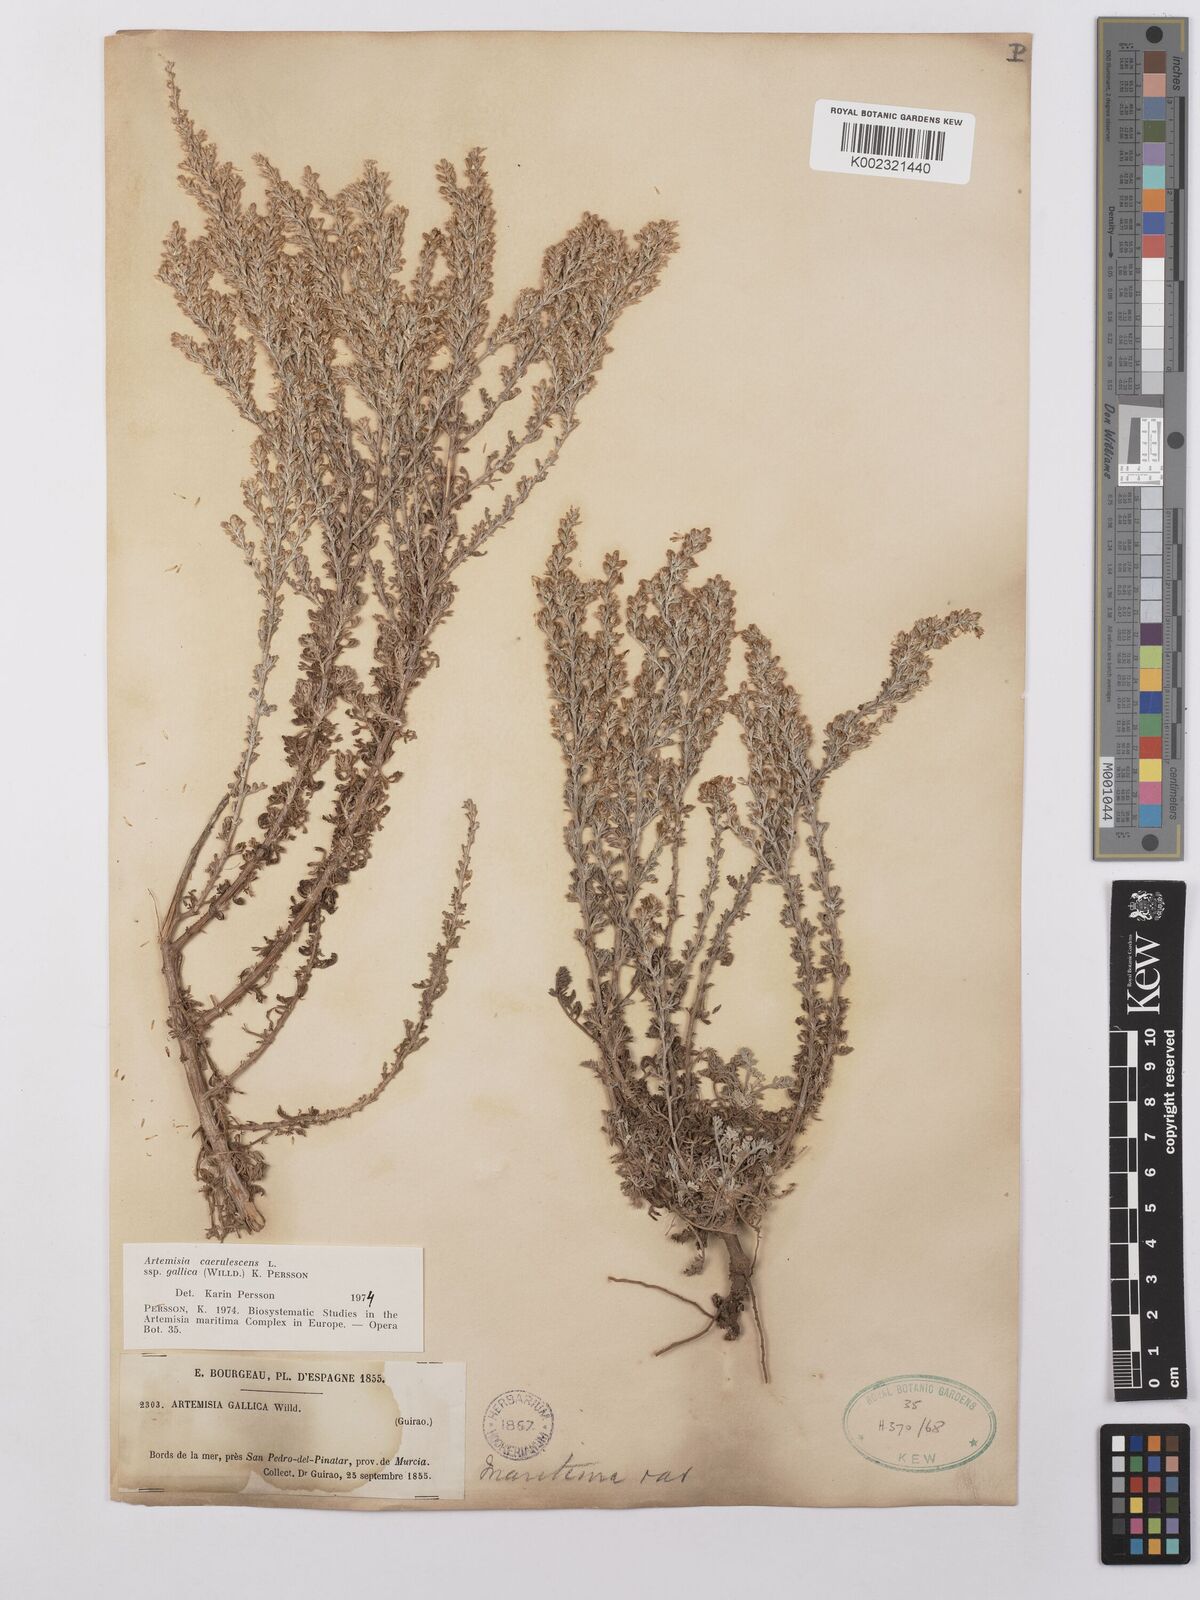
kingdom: Plantae
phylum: Tracheophyta
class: Magnoliopsida
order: Asterales
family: Asteraceae
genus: Artemisia
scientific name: Artemisia caerulescens
